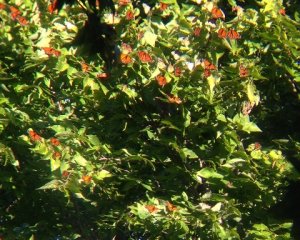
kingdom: Animalia
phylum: Arthropoda
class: Insecta
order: Lepidoptera
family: Nymphalidae
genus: Danaus
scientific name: Danaus plexippus
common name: Monarch
